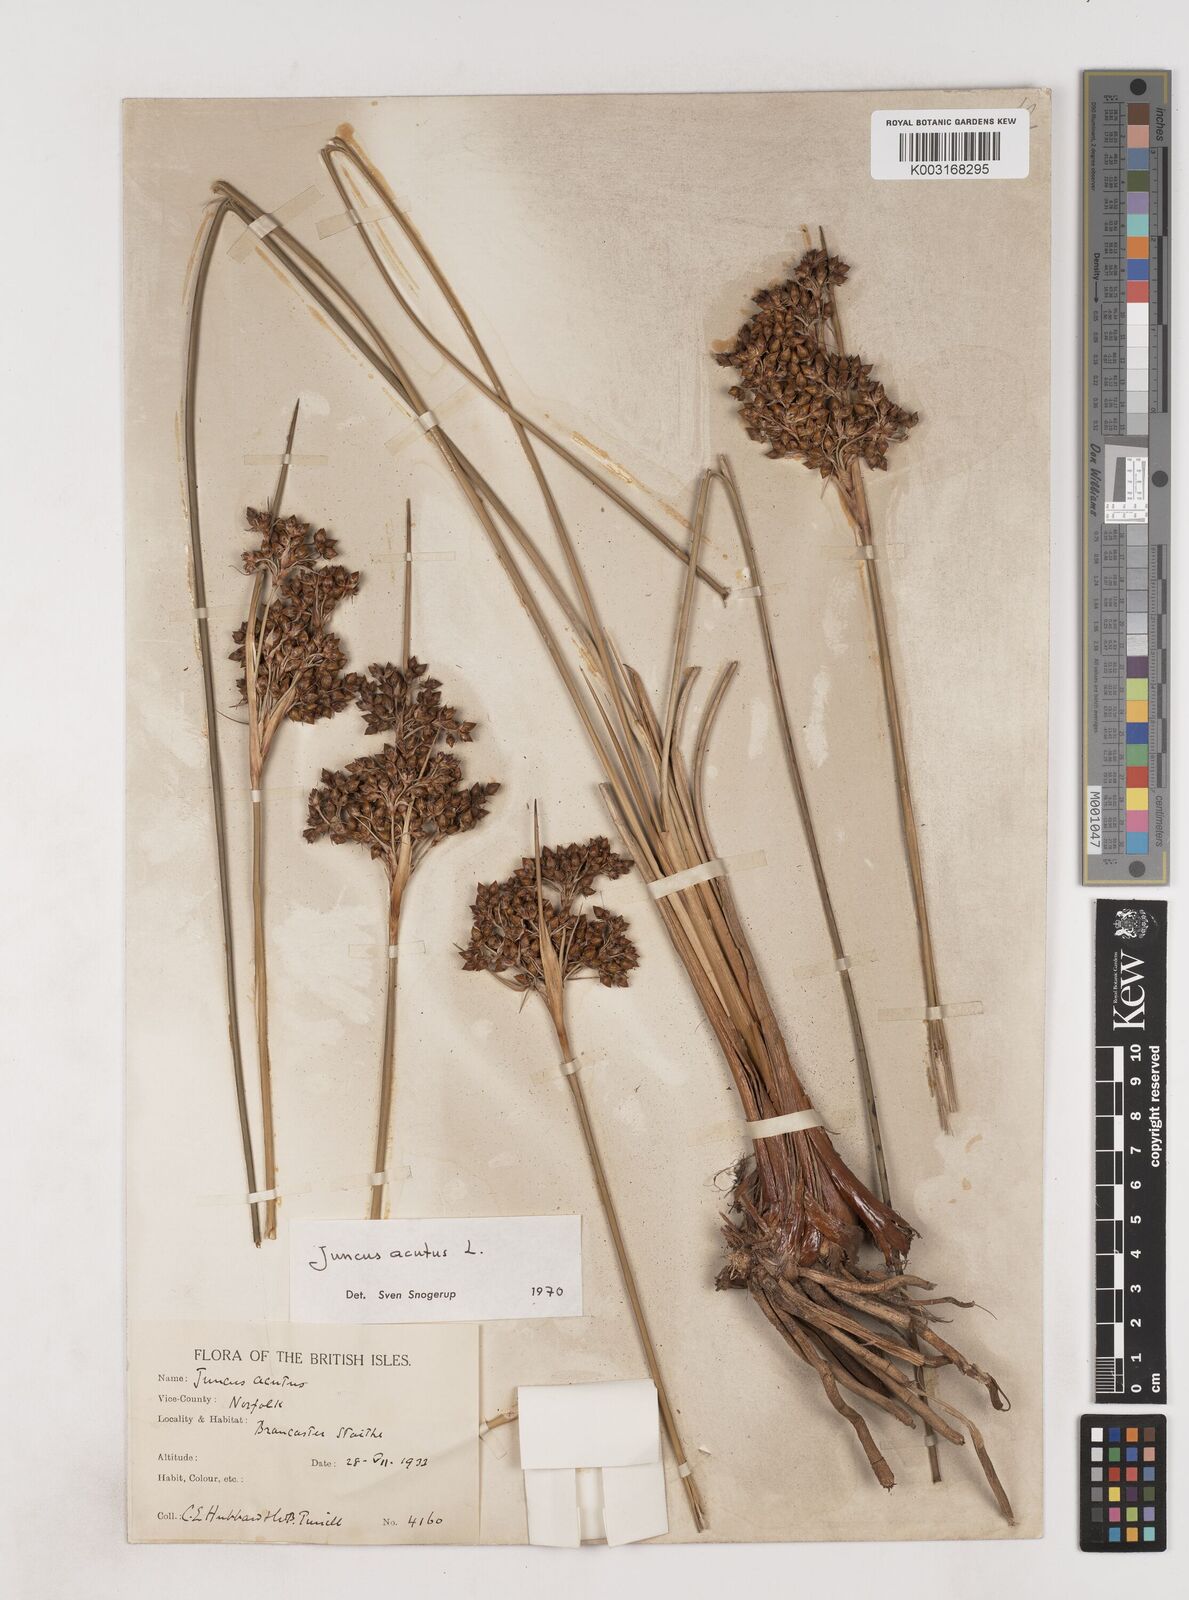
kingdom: Plantae
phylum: Tracheophyta
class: Liliopsida
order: Poales
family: Juncaceae
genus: Juncus
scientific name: Juncus acutus
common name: Sharp rush
